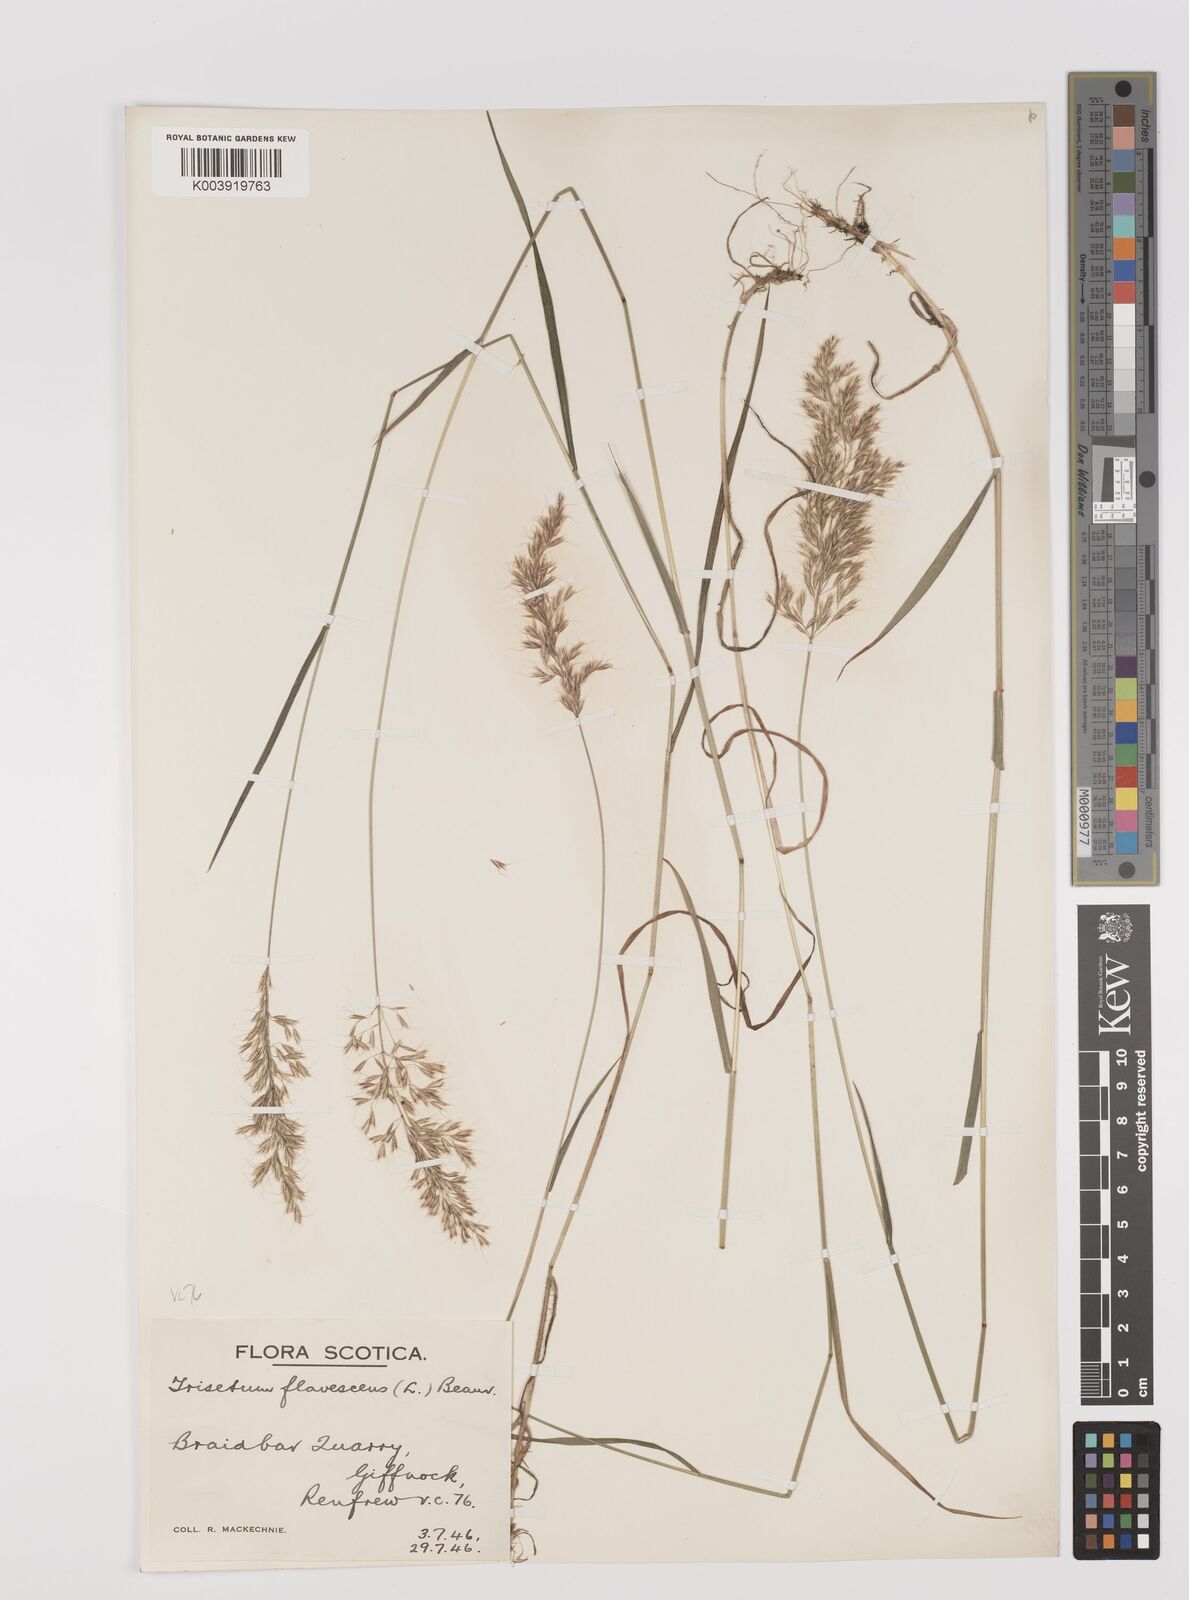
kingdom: Plantae
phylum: Tracheophyta
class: Liliopsida
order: Poales
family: Poaceae
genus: Trisetum
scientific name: Trisetum flavescens
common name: Yellow oat-grass
